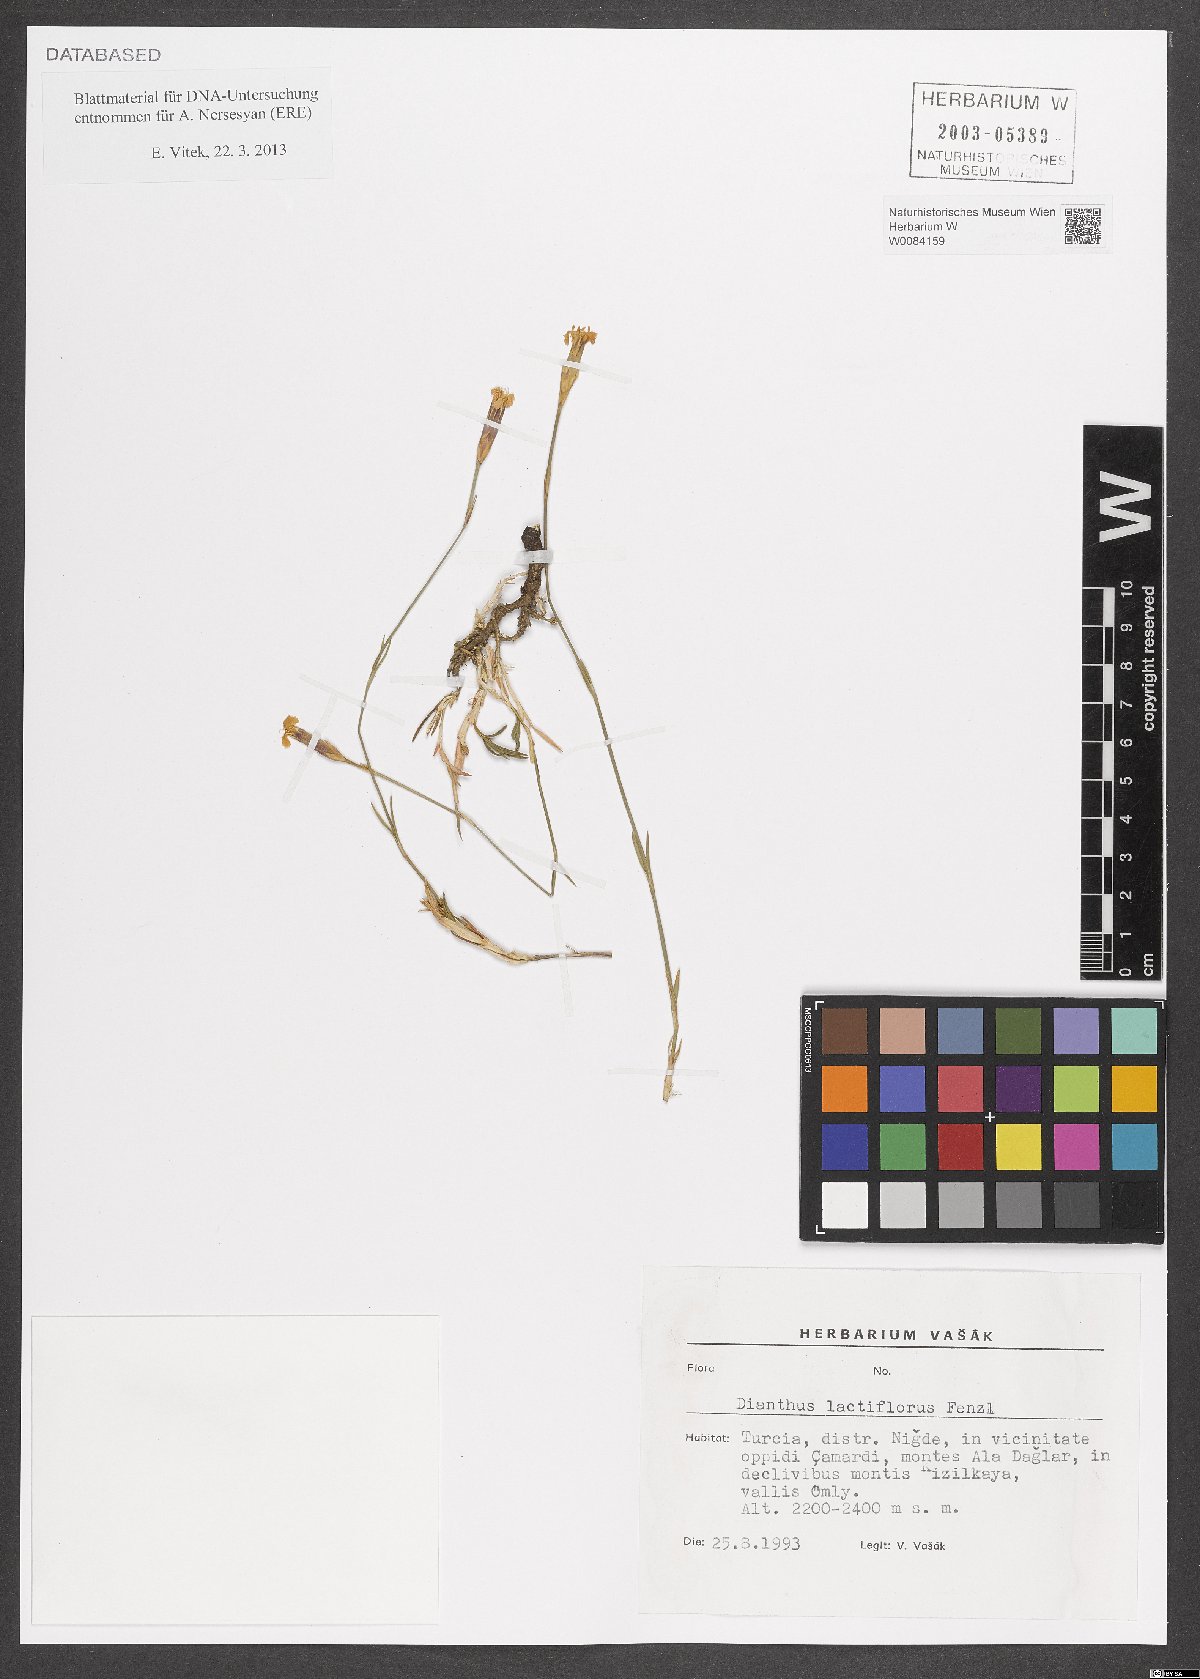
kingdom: Plantae
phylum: Tracheophyta
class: Magnoliopsida
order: Caryophyllales
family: Caryophyllaceae
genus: Dianthus
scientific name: Dianthus lactiflorus
